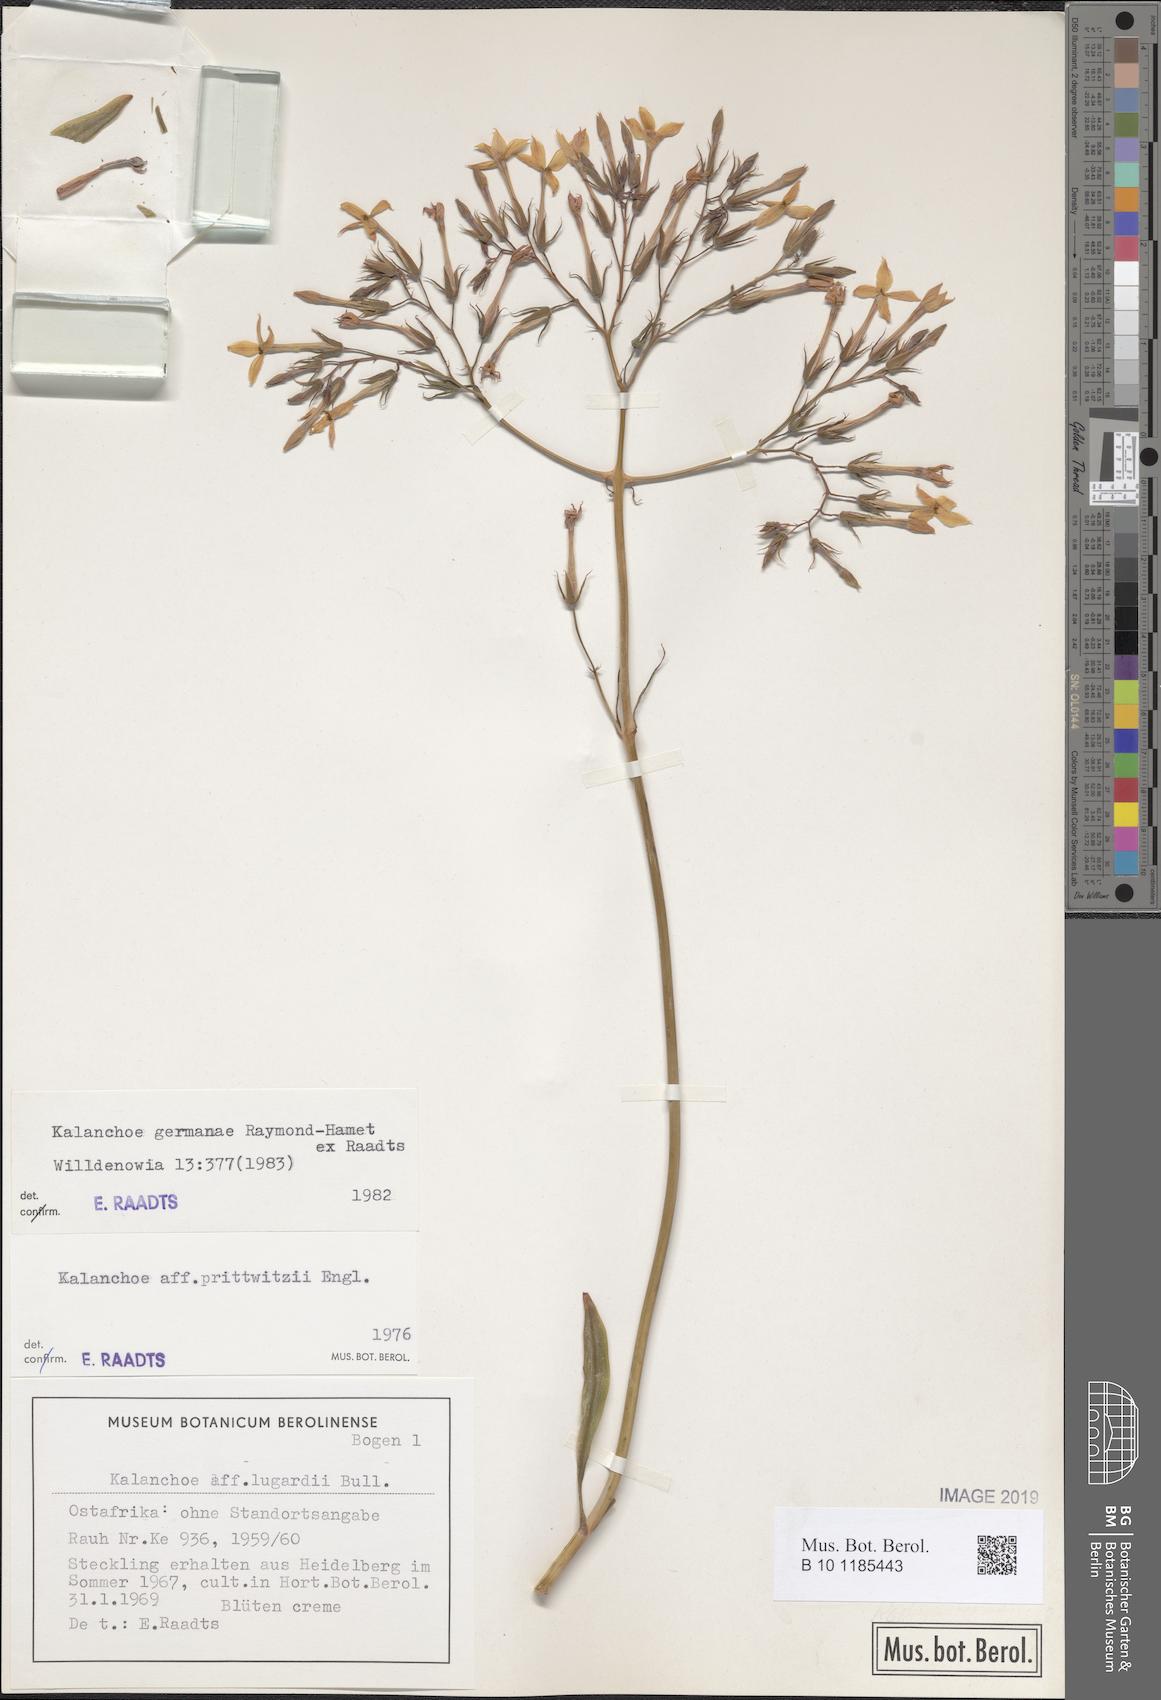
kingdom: Plantae
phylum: Tracheophyta
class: Magnoliopsida
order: Saxifragales
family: Crassulaceae
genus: Kalanchoe
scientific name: Kalanchoe germanae
